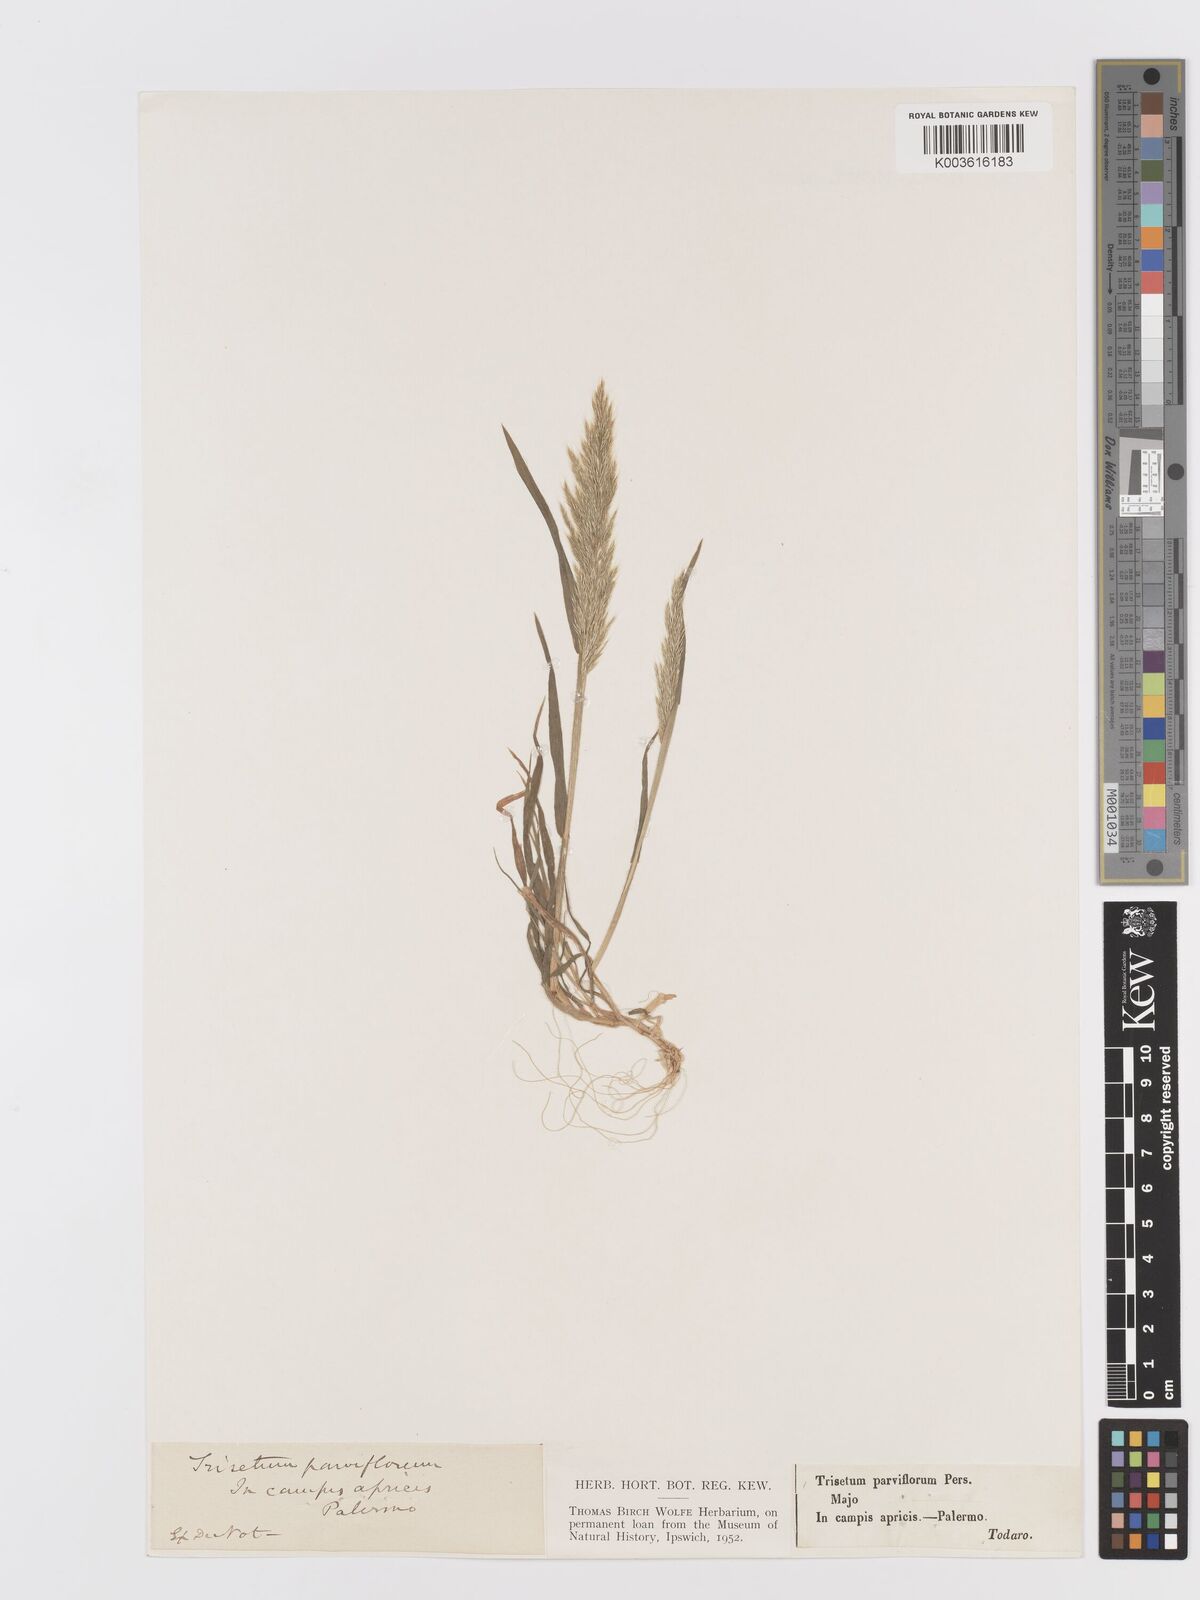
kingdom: Plantae
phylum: Tracheophyta
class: Liliopsida
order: Poales
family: Poaceae
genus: Trisetaria
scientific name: Trisetaria parviflora
